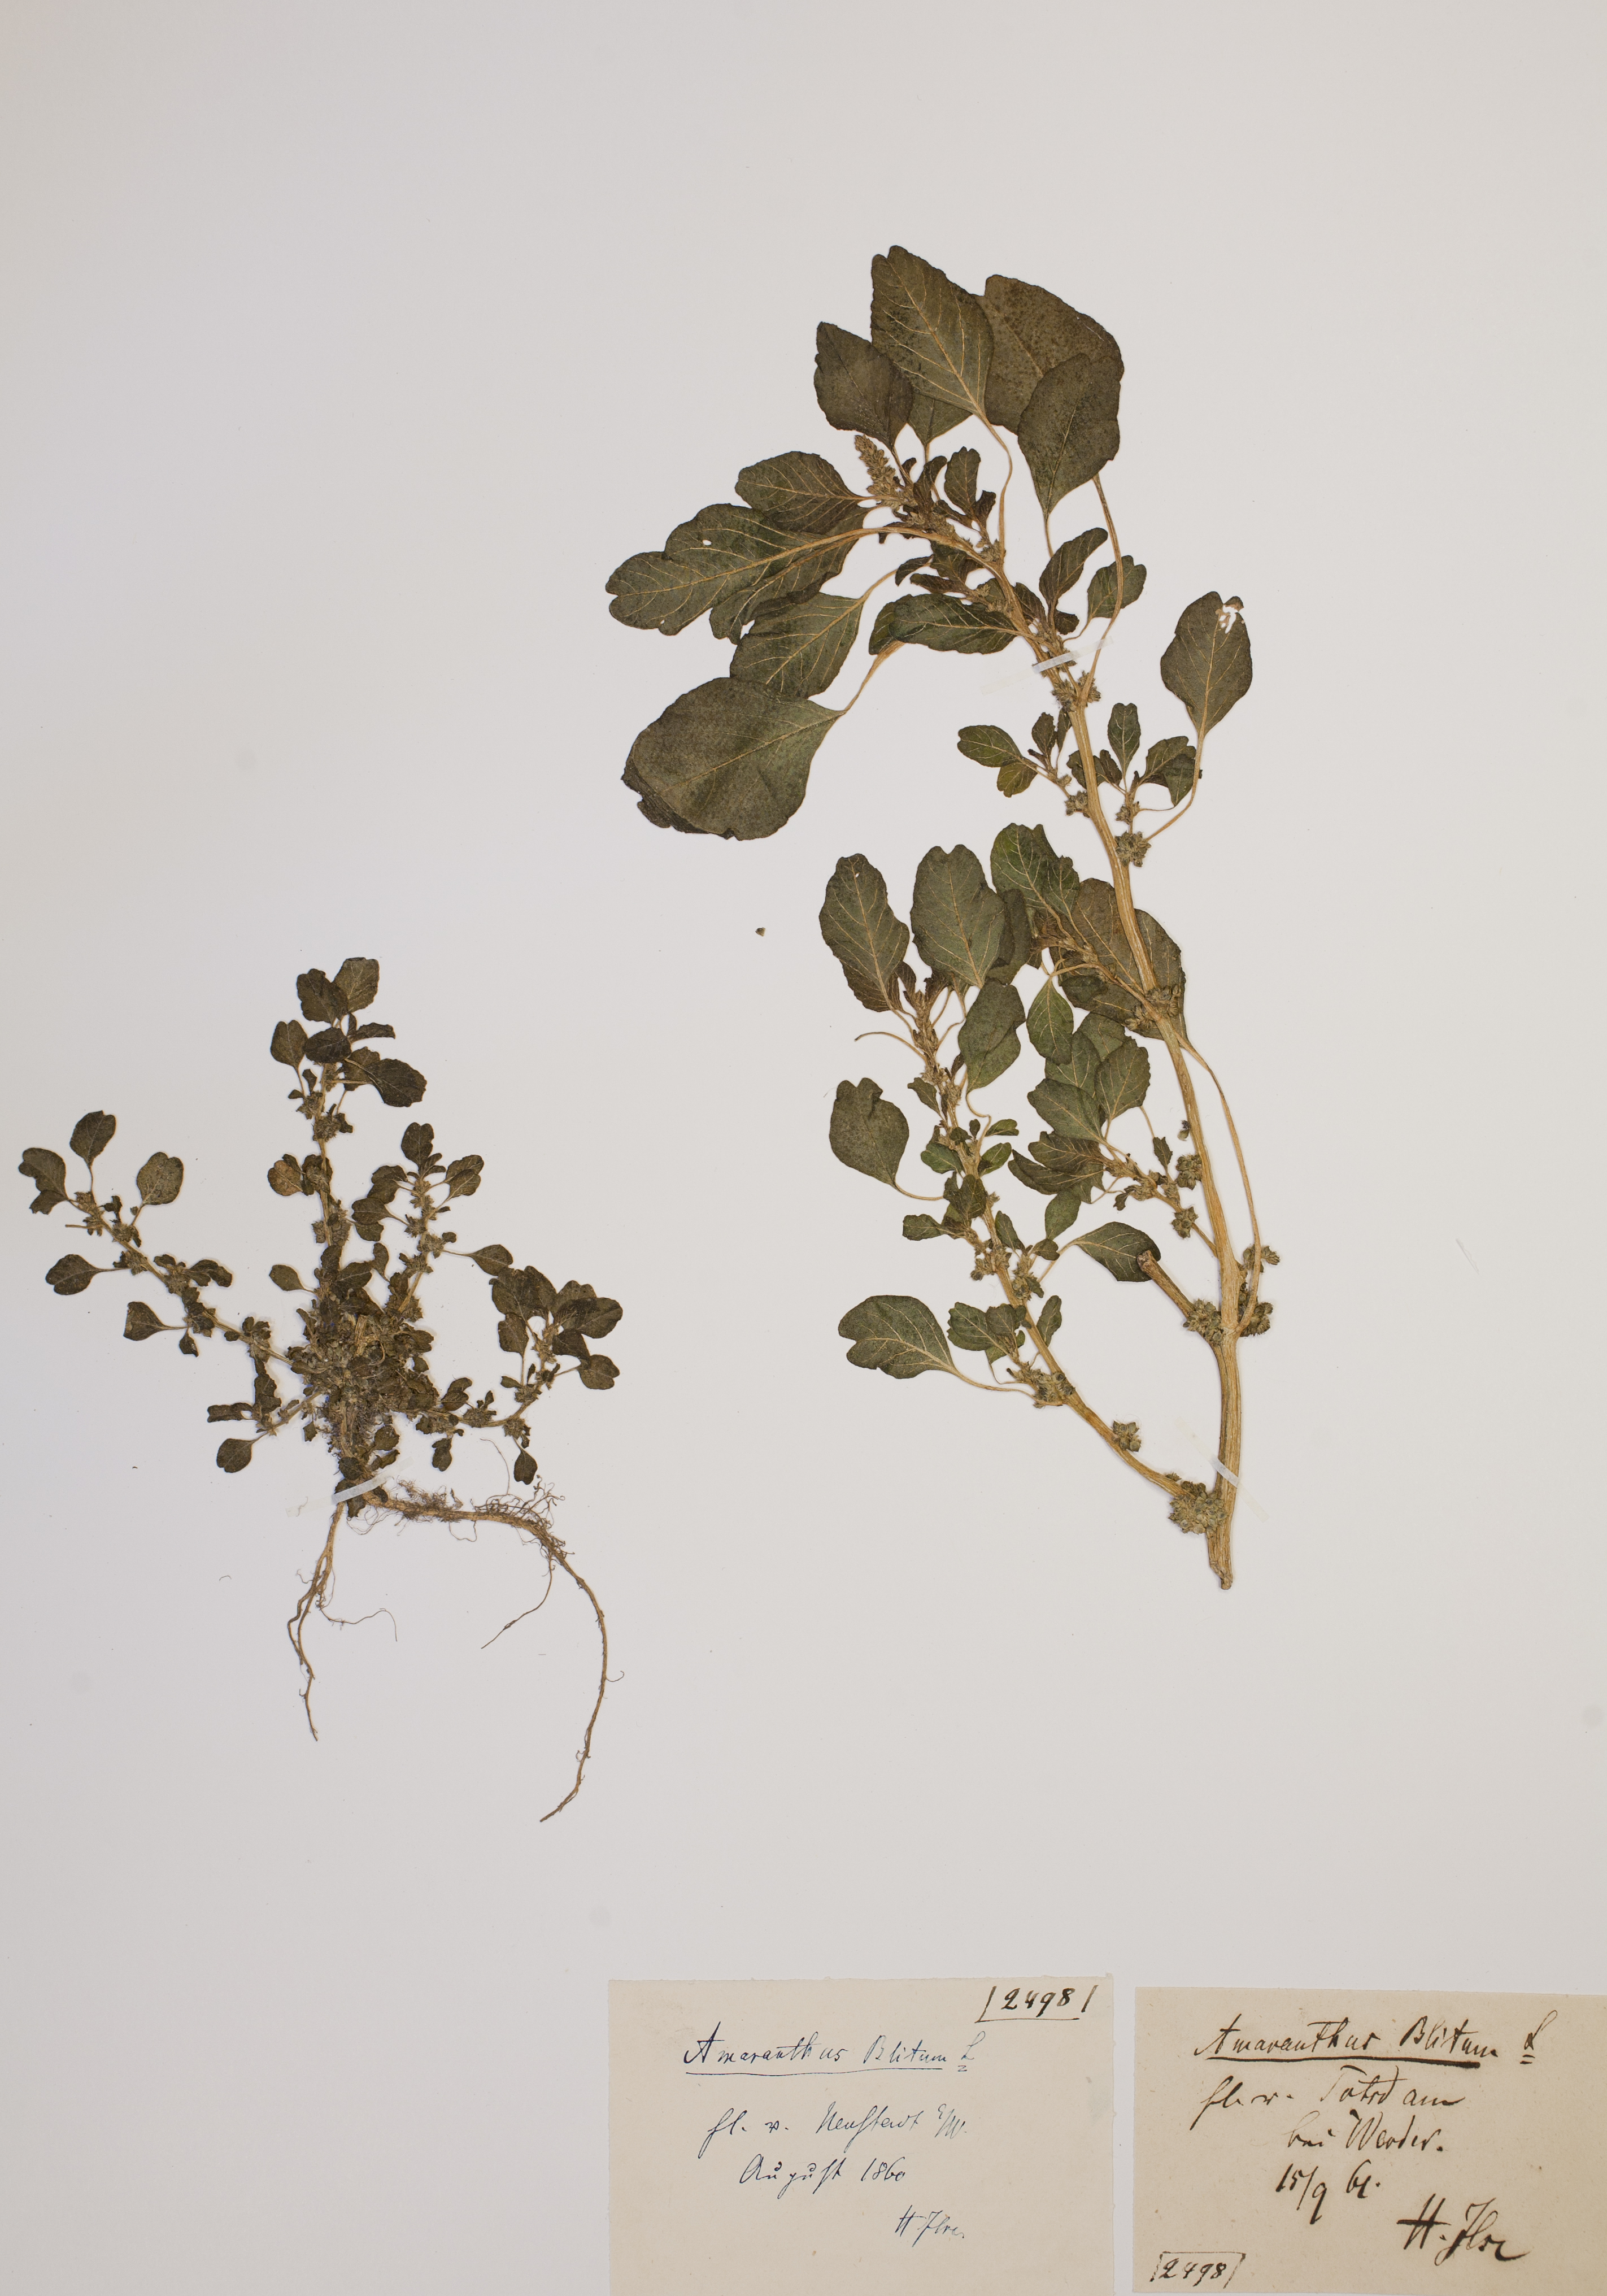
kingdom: Plantae
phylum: Tracheophyta
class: Magnoliopsida
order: Caryophyllales
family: Amaranthaceae
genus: Amaranthus
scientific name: Amaranthus blitum
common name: Purple amaranth
